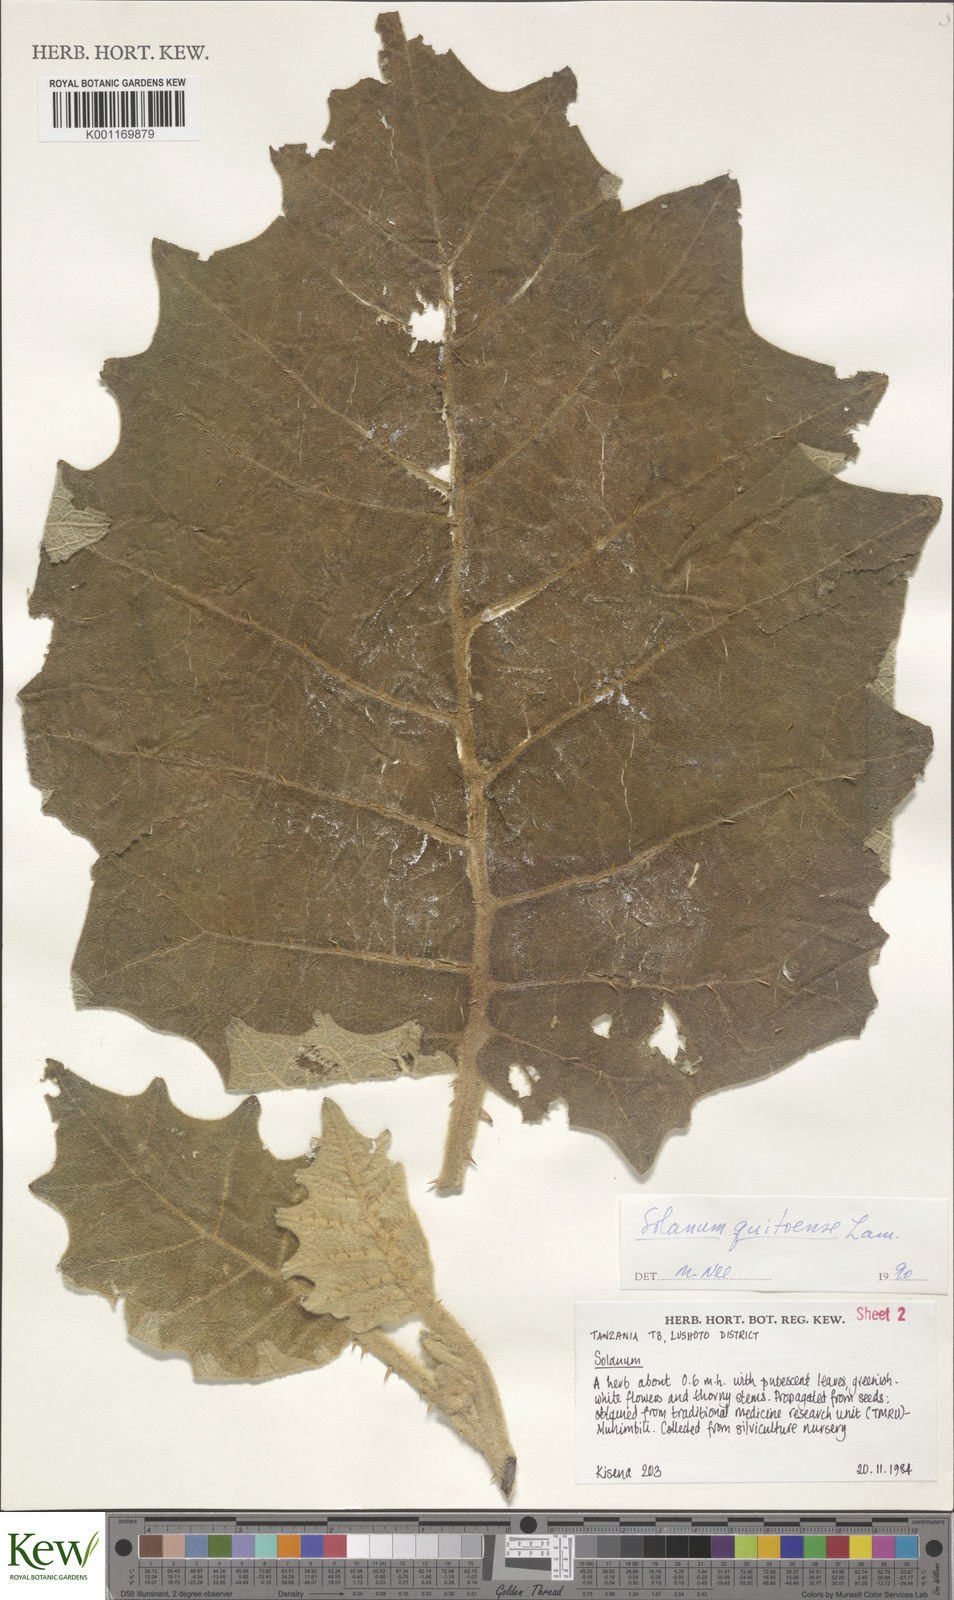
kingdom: Plantae
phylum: Tracheophyta
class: Magnoliopsida
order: Solanales
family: Solanaceae
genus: Solanum
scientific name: Solanum quitoense
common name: Quito-orange
